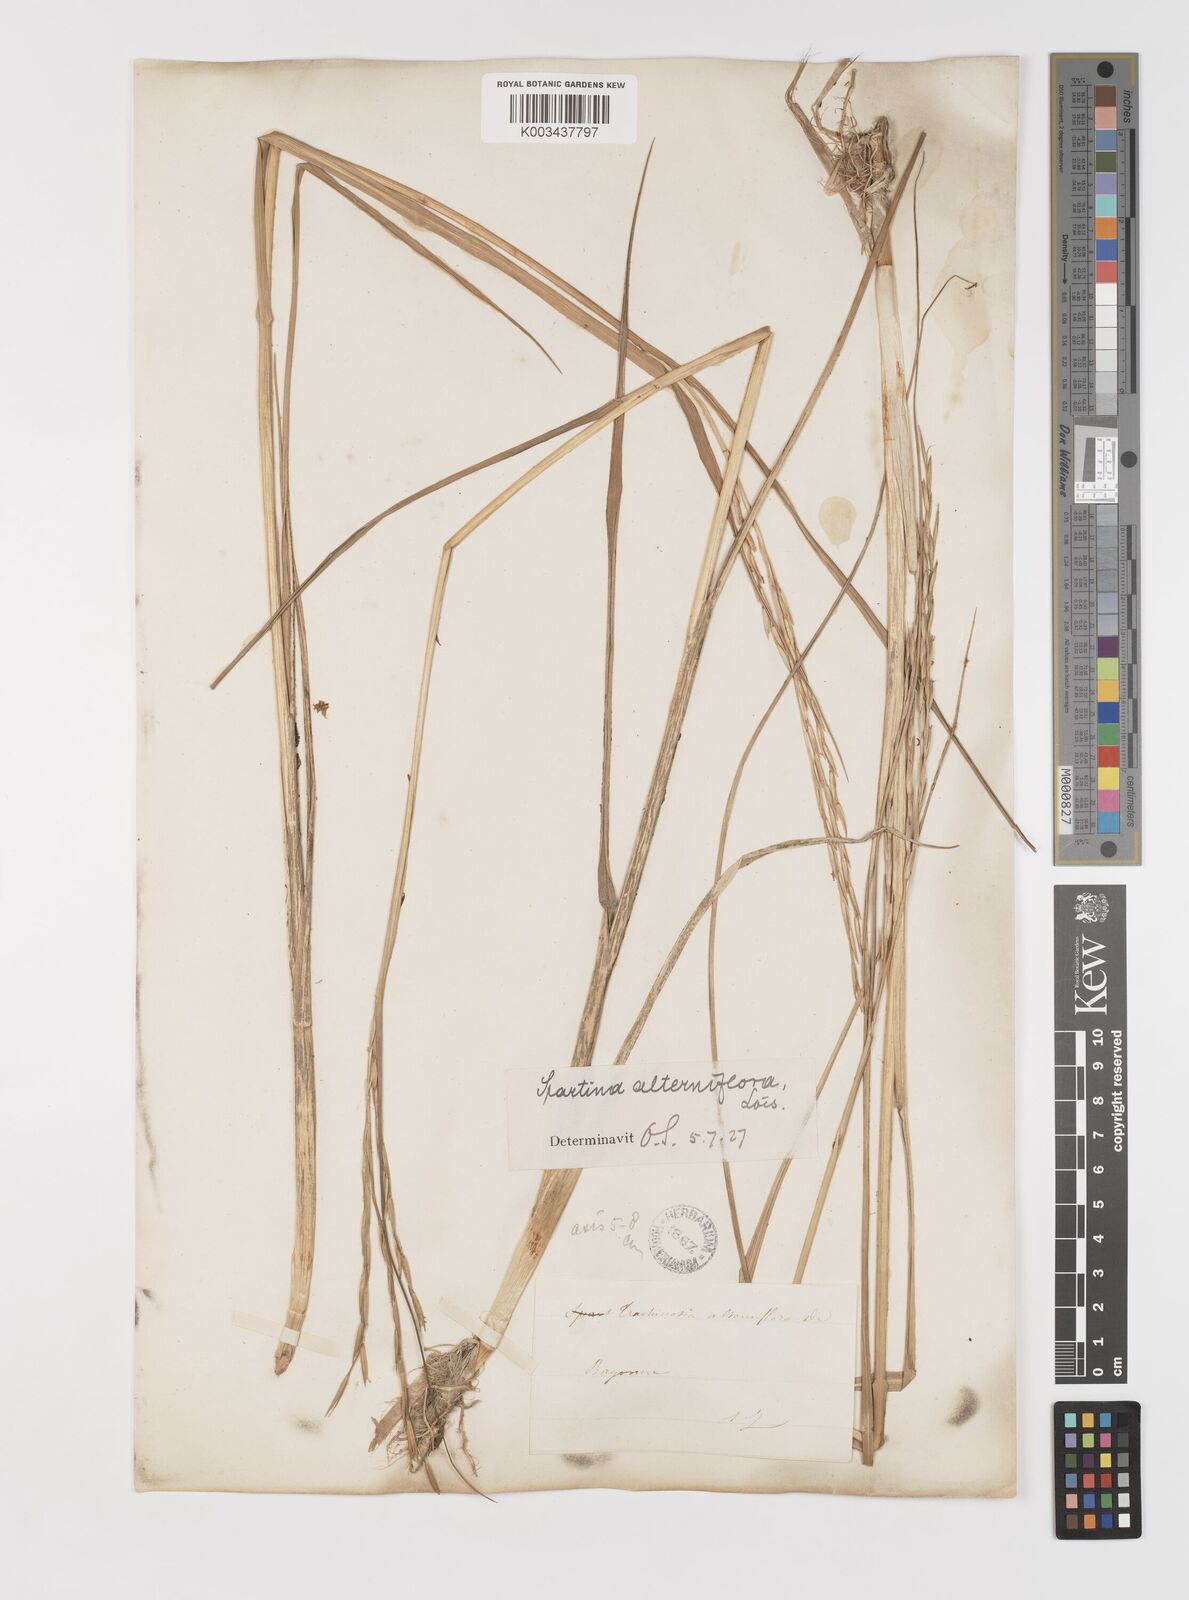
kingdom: Plantae
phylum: Tracheophyta
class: Liliopsida
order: Poales
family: Poaceae
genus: Sporobolus
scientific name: Sporobolus alterniflorus
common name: Atlantic cordgrass
